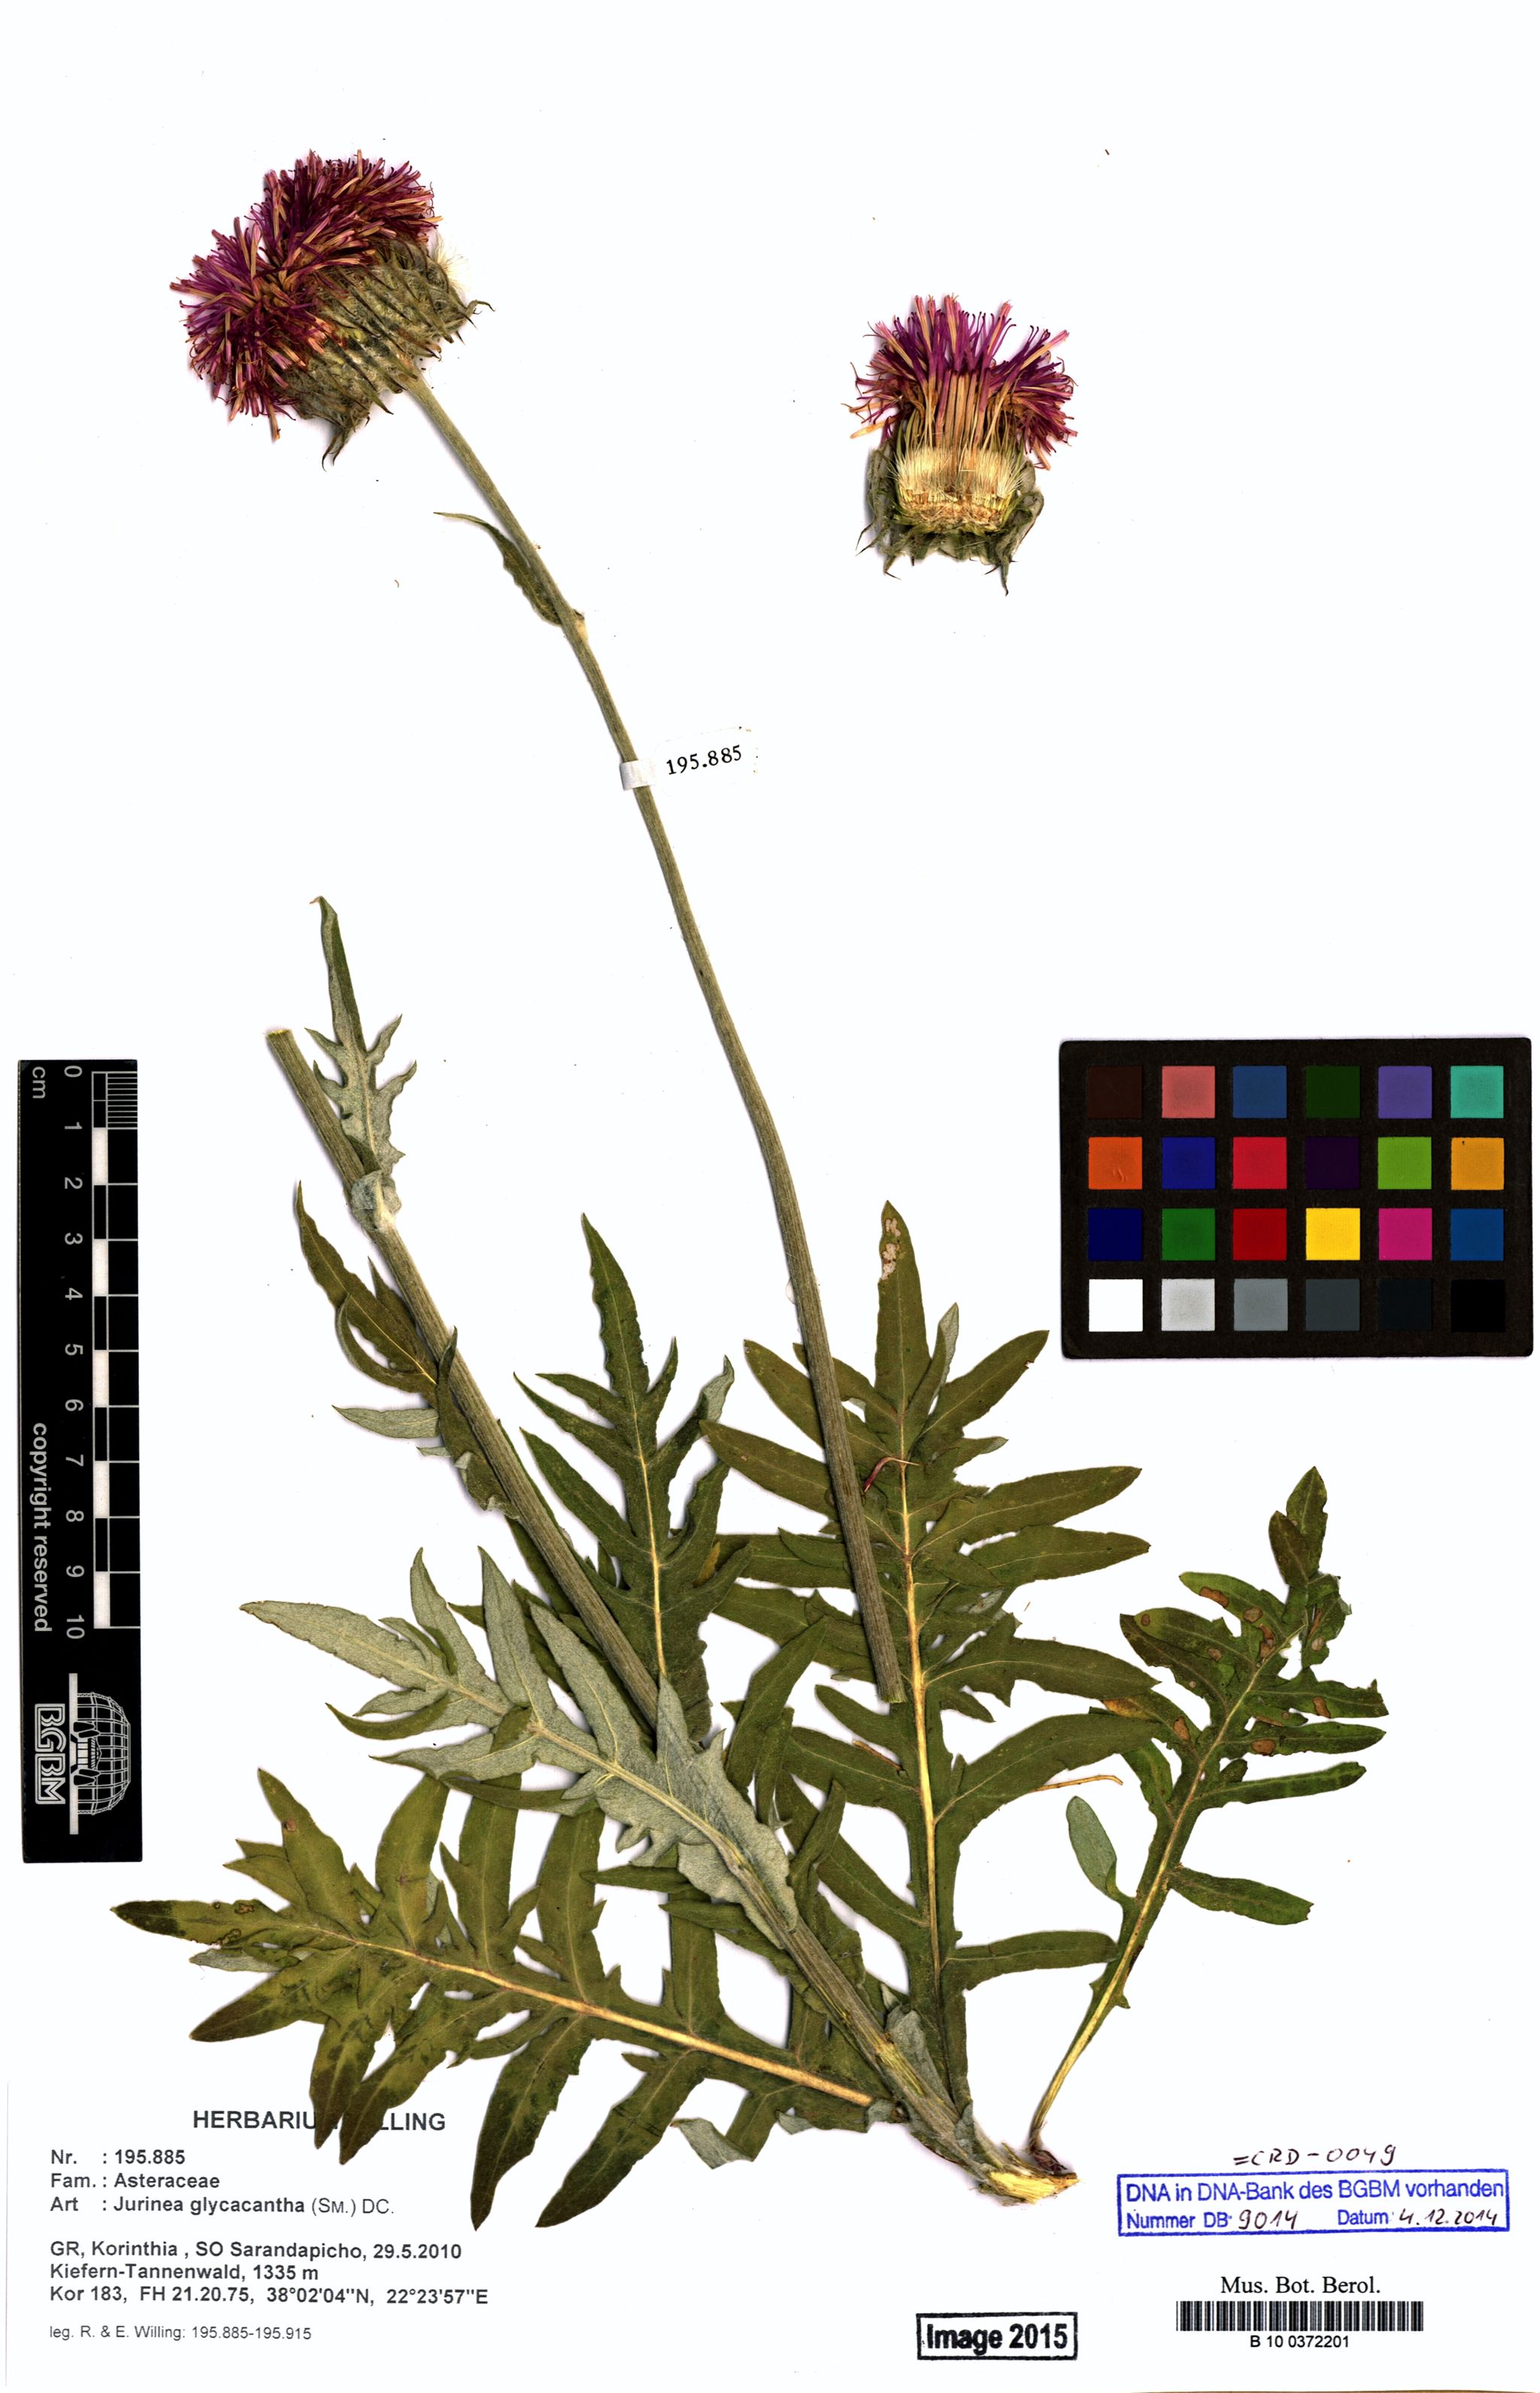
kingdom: Plantae
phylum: Tracheophyta
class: Magnoliopsida
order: Asterales
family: Asteraceae
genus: Jurinea
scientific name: Jurinea glycacantha
